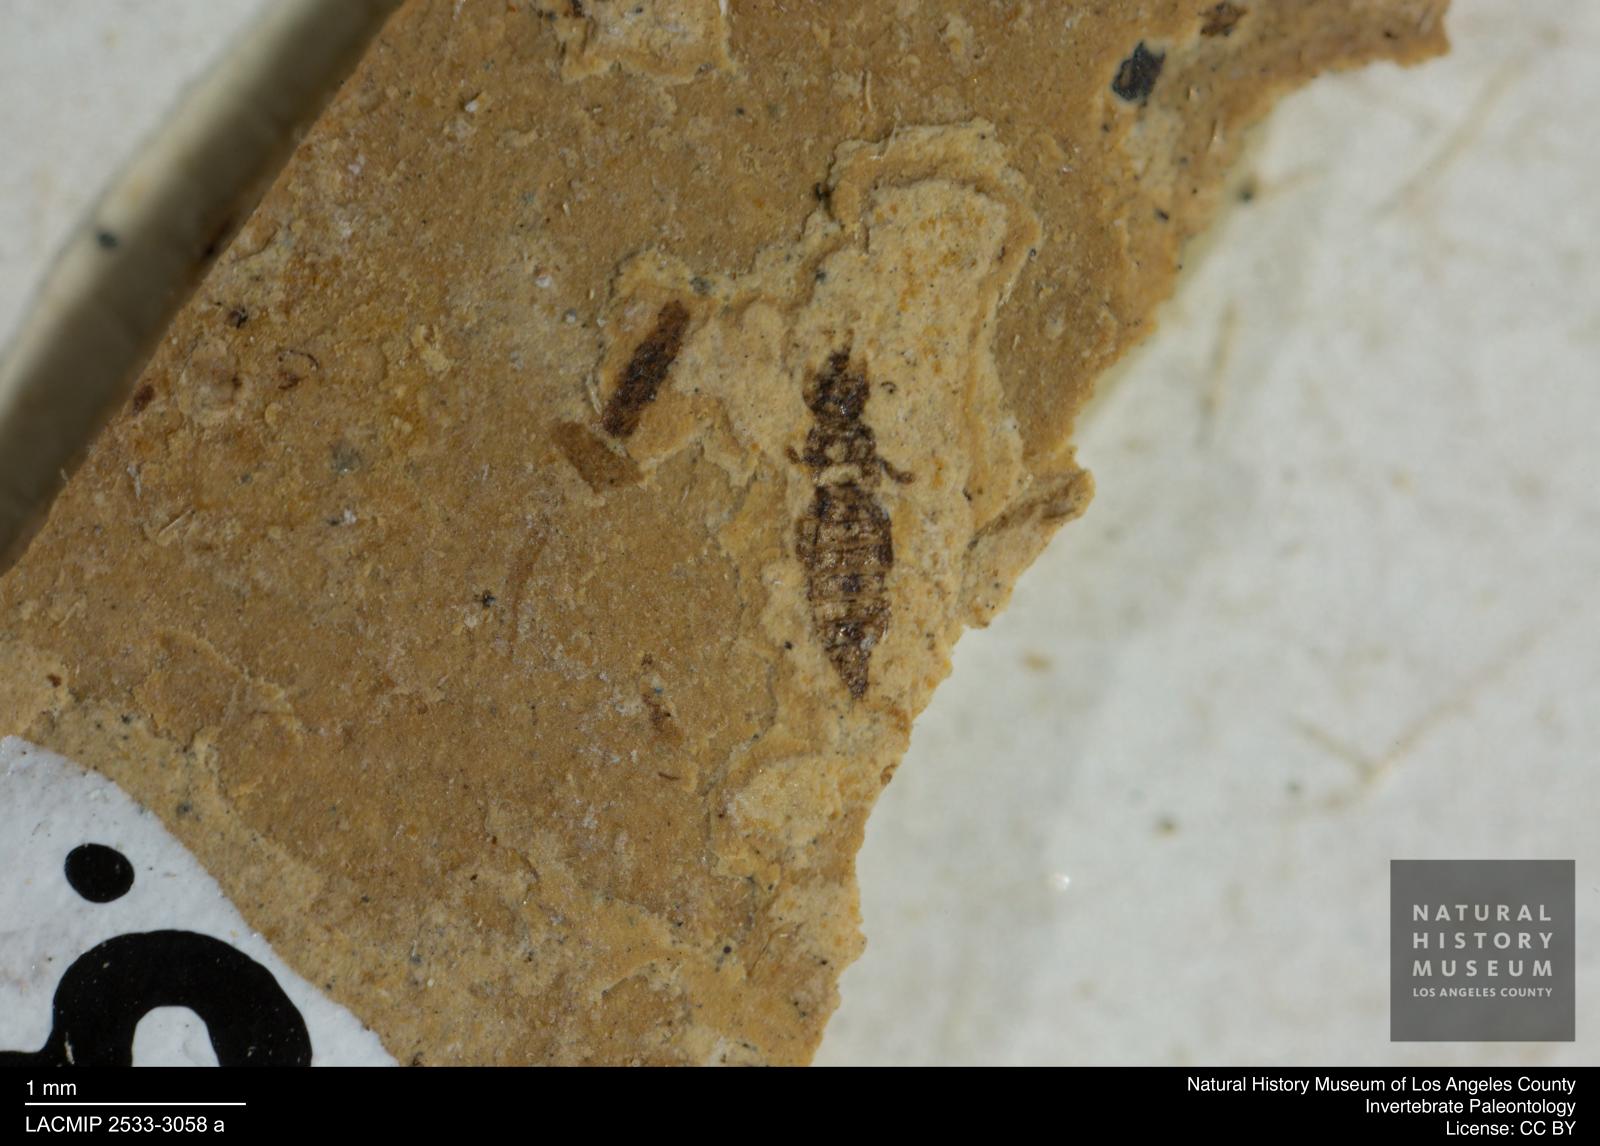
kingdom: Animalia
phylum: Arthropoda
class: Insecta
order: Thysanoptera
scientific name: Thysanoptera
